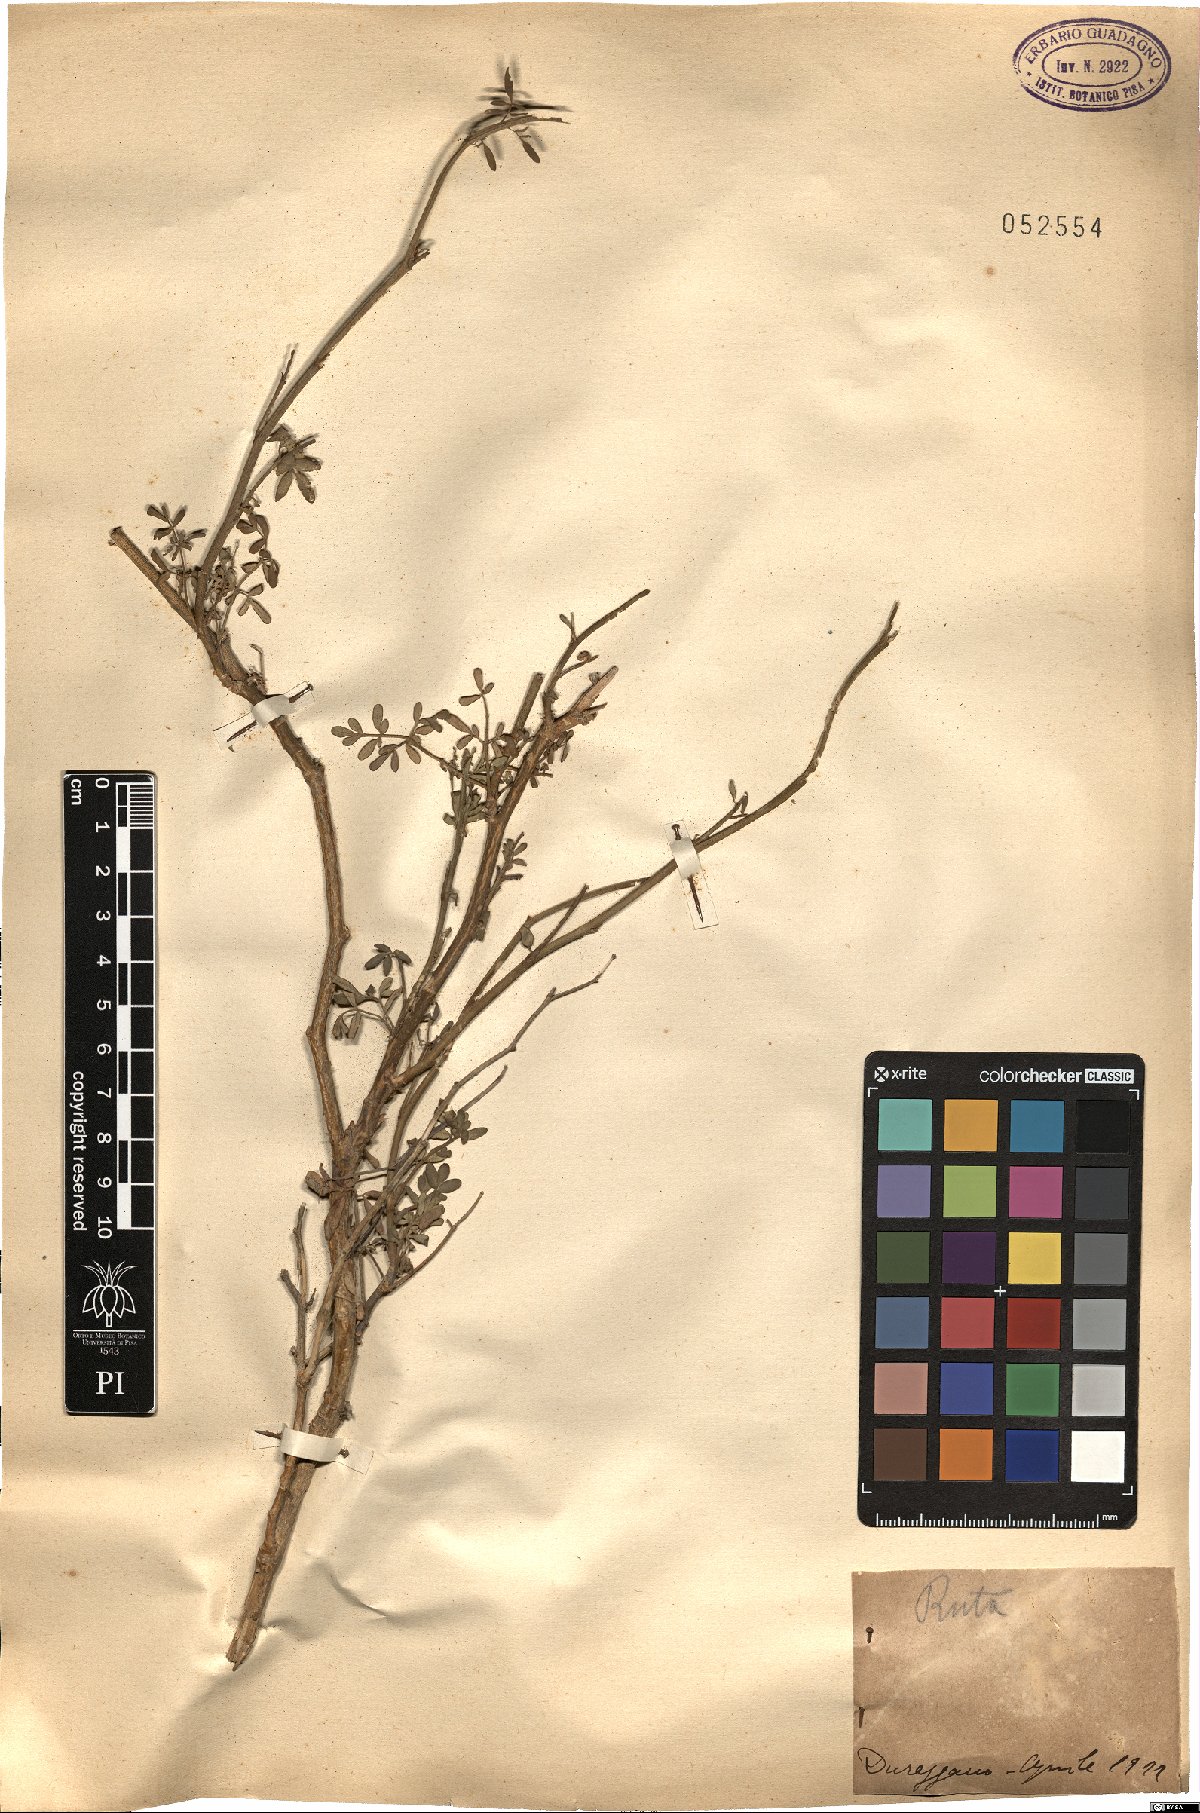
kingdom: Plantae
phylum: Tracheophyta
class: Magnoliopsida
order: Sapindales
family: Rutaceae
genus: Ruta
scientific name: Ruta
